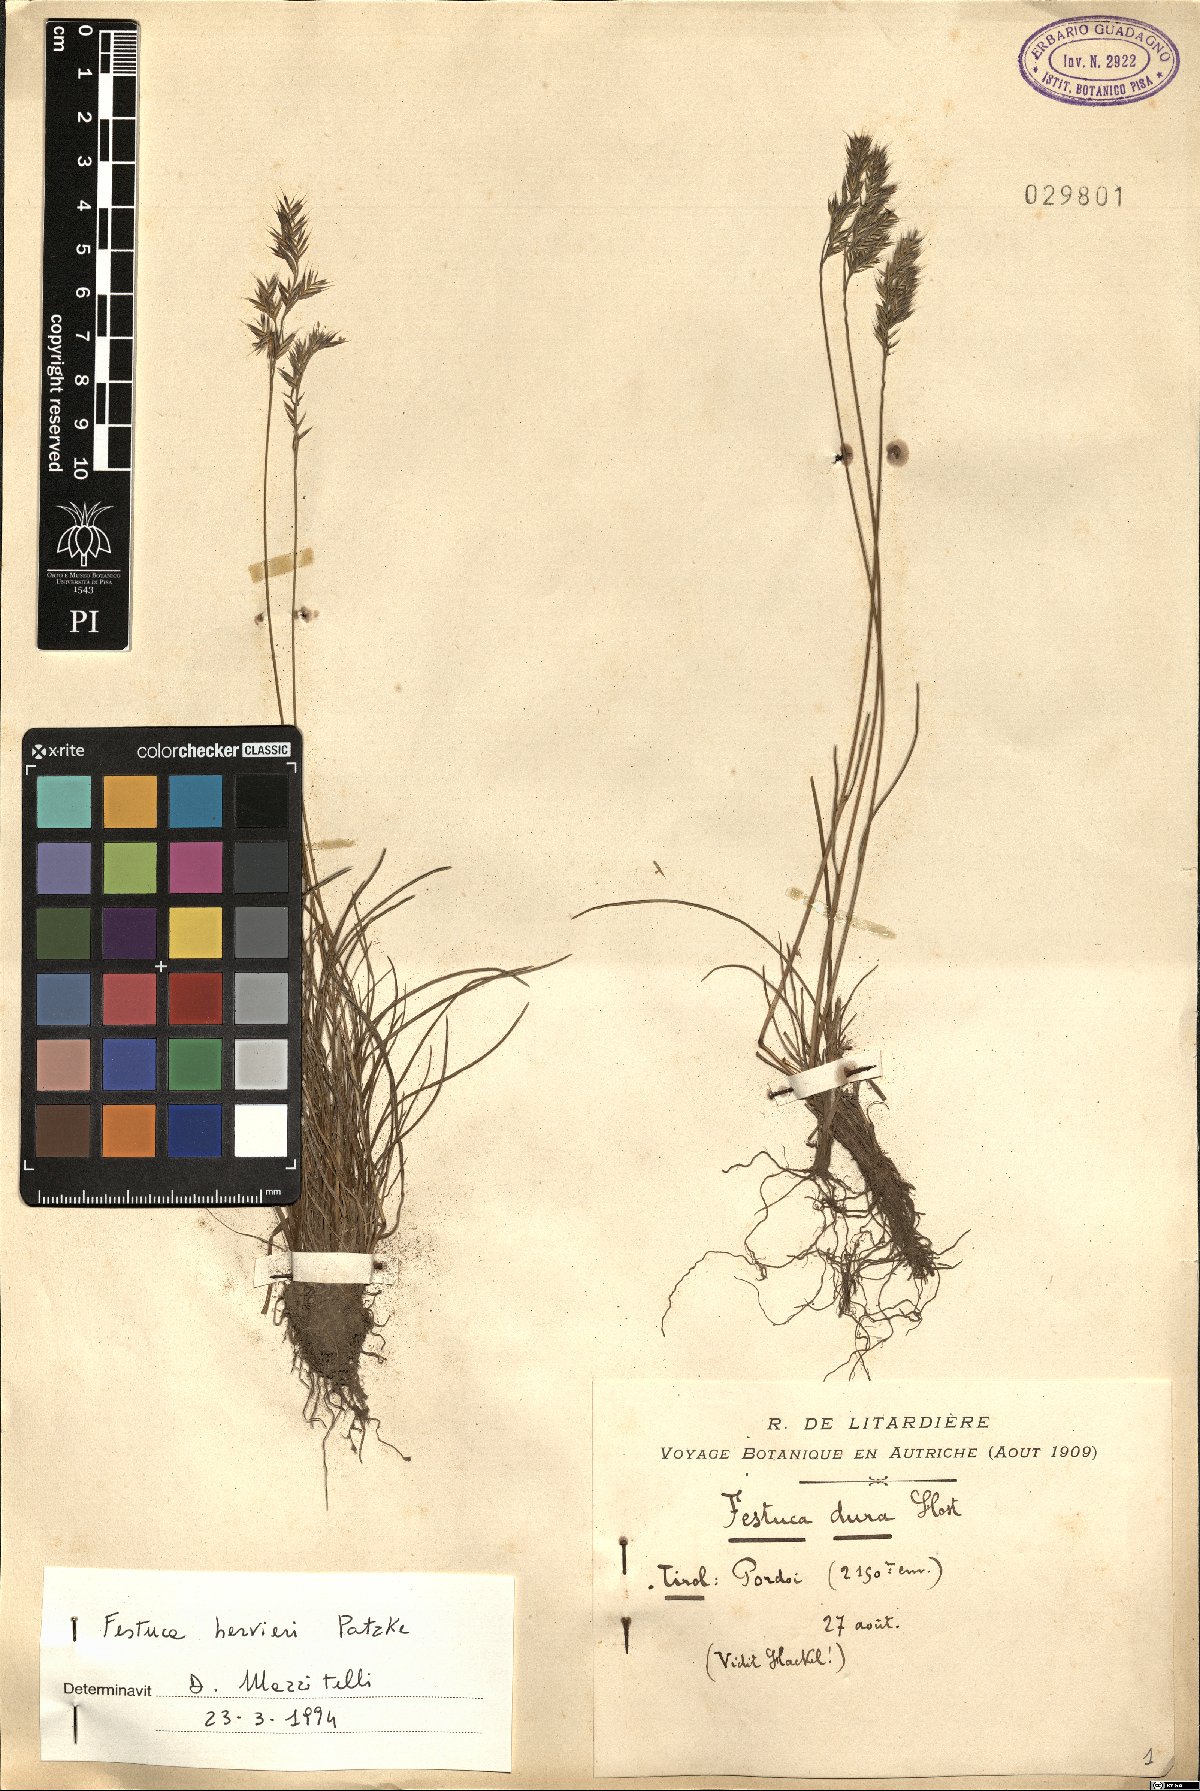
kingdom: Plantae
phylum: Tracheophyta
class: Liliopsida
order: Poales
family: Poaceae
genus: Festuca
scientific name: Festuca rubra
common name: Red fescue
